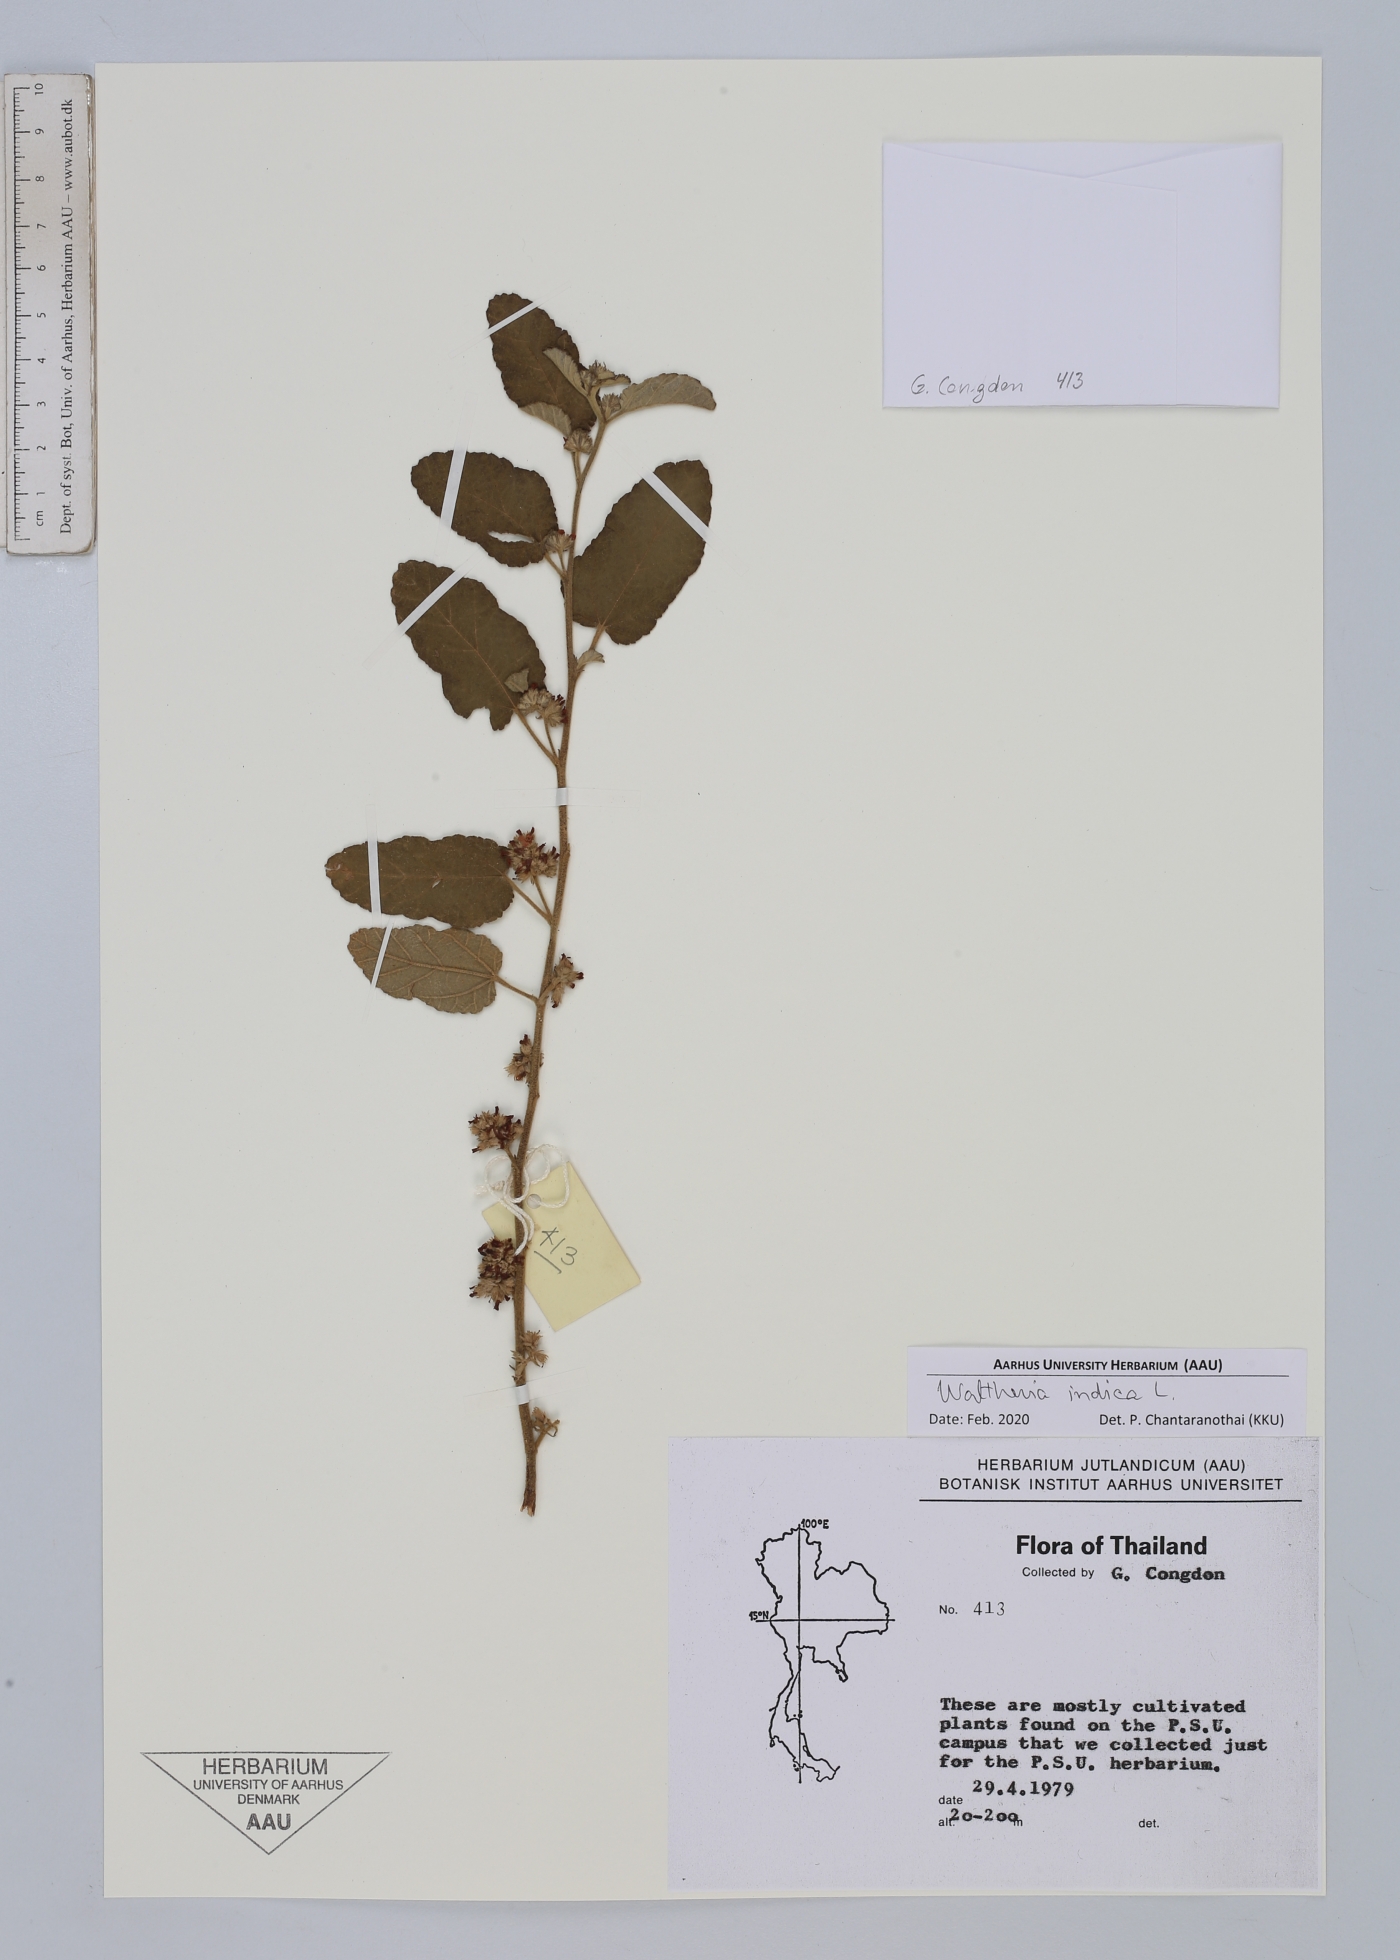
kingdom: Plantae
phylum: Tracheophyta
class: Magnoliopsida
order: Malvales
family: Malvaceae
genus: Waltheria
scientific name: Waltheria indica
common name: Leather-coat
